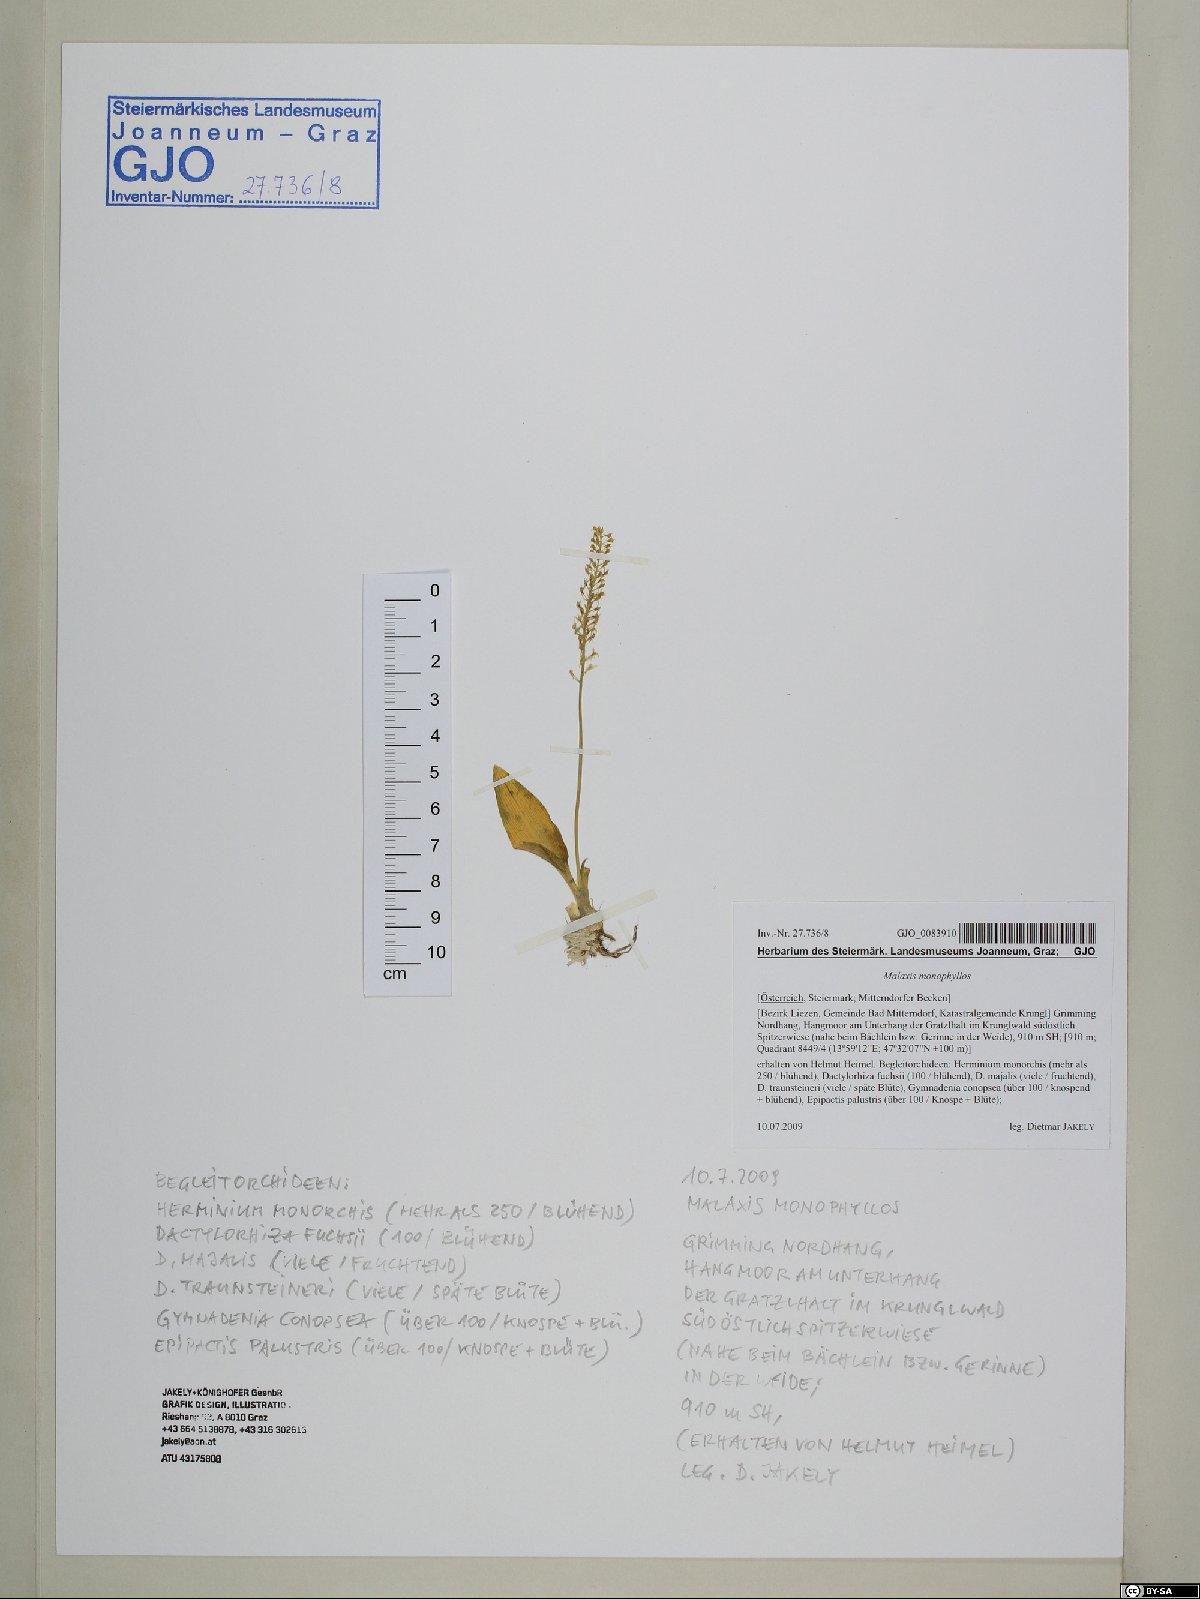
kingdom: Plantae
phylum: Tracheophyta
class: Liliopsida
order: Asparagales
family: Orchidaceae
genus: Malaxis
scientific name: Malaxis monophyllos
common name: White adder's-mouth
